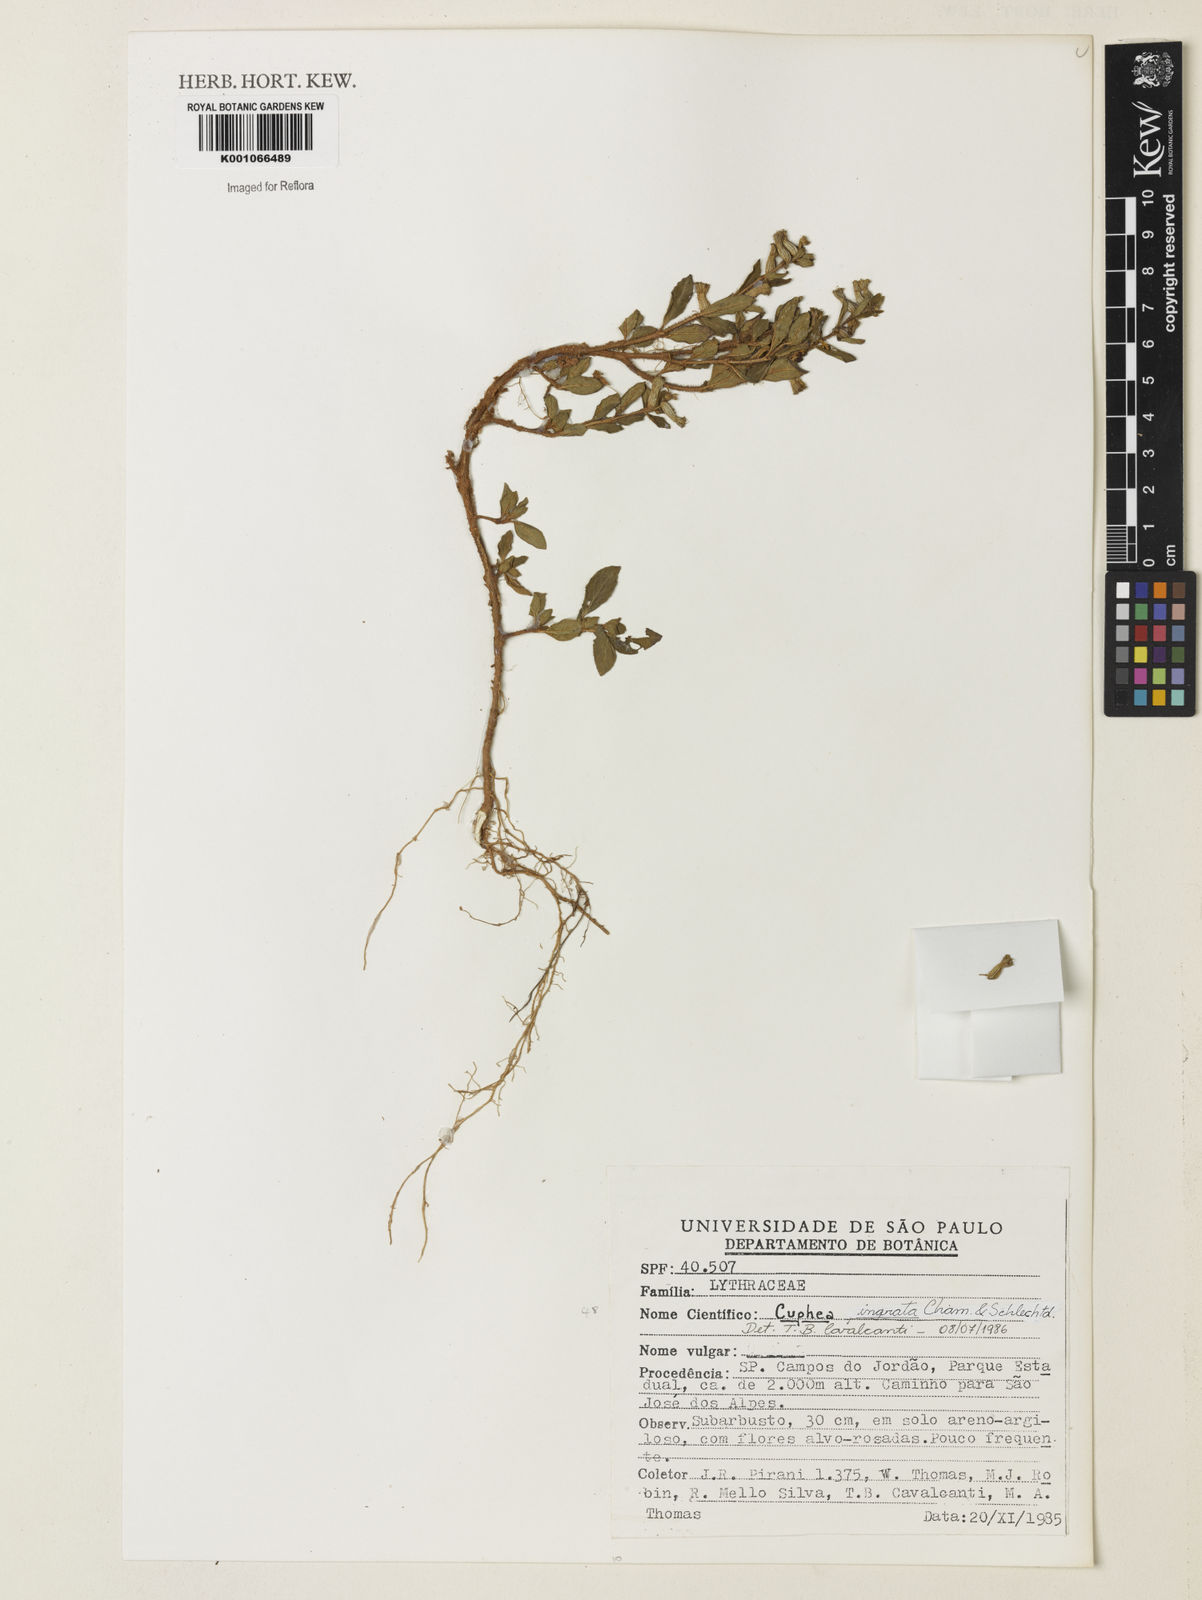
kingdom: Plantae
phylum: Tracheophyta
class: Magnoliopsida
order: Myrtales
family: Lythraceae
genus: Cuphea
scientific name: Cuphea ingrata
